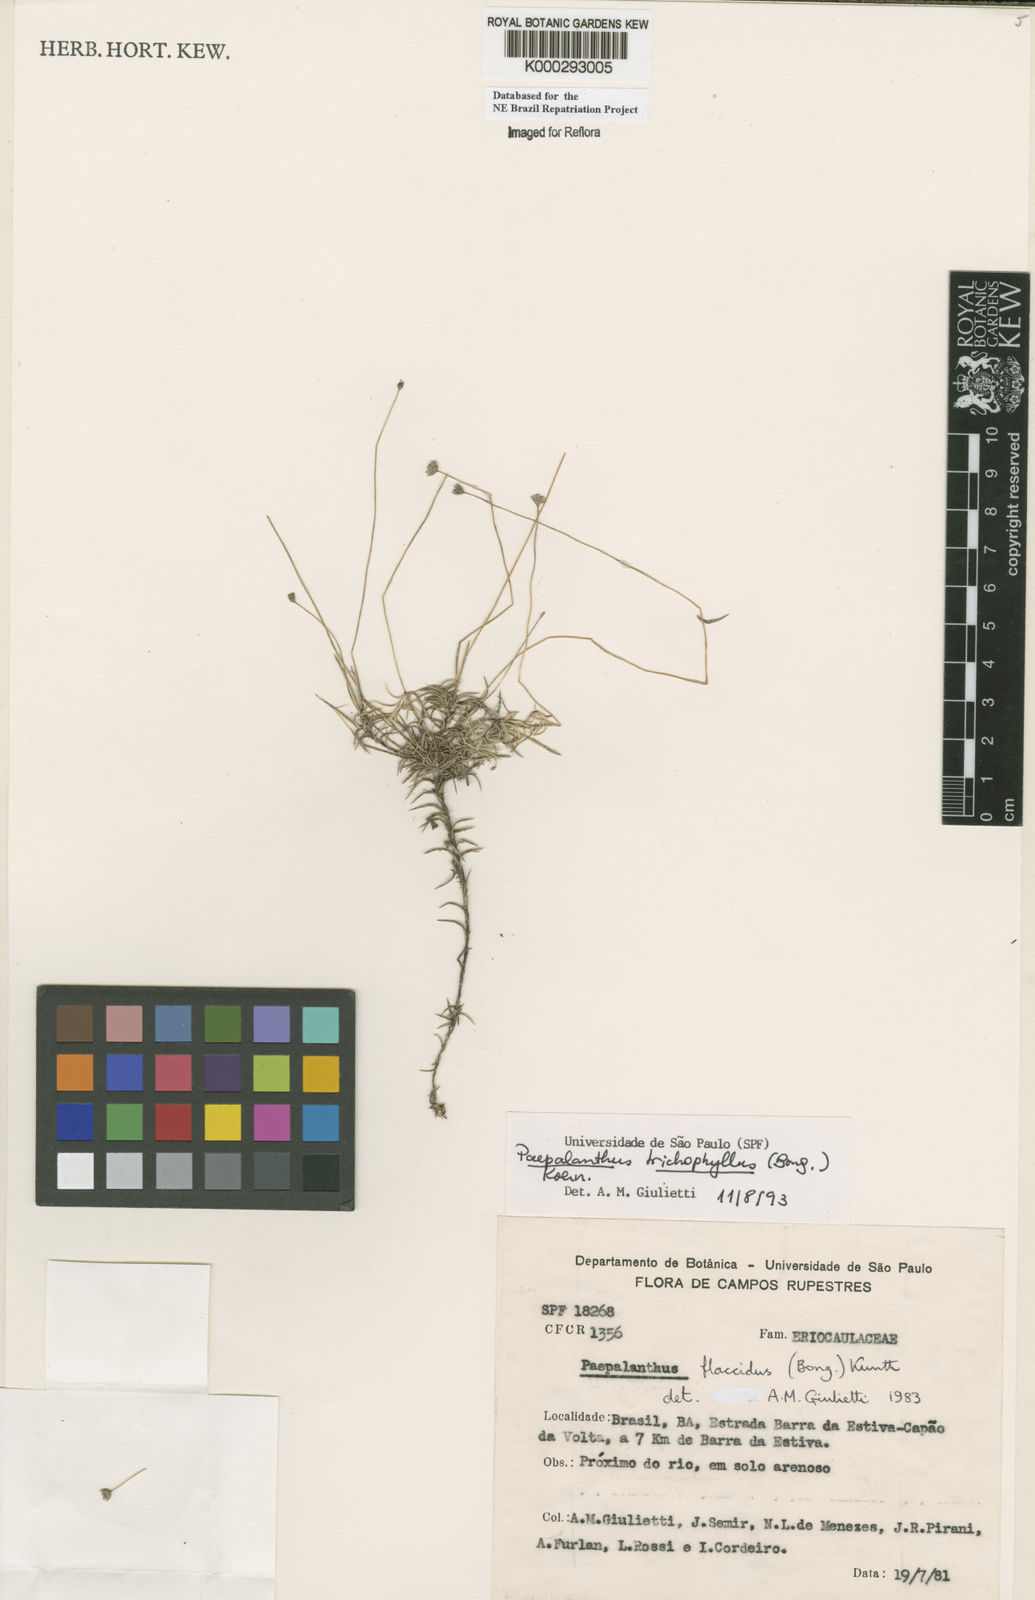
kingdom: Plantae
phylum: Tracheophyta
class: Liliopsida
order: Poales
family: Eriocaulaceae
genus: Paepalanthus
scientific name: Paepalanthus
